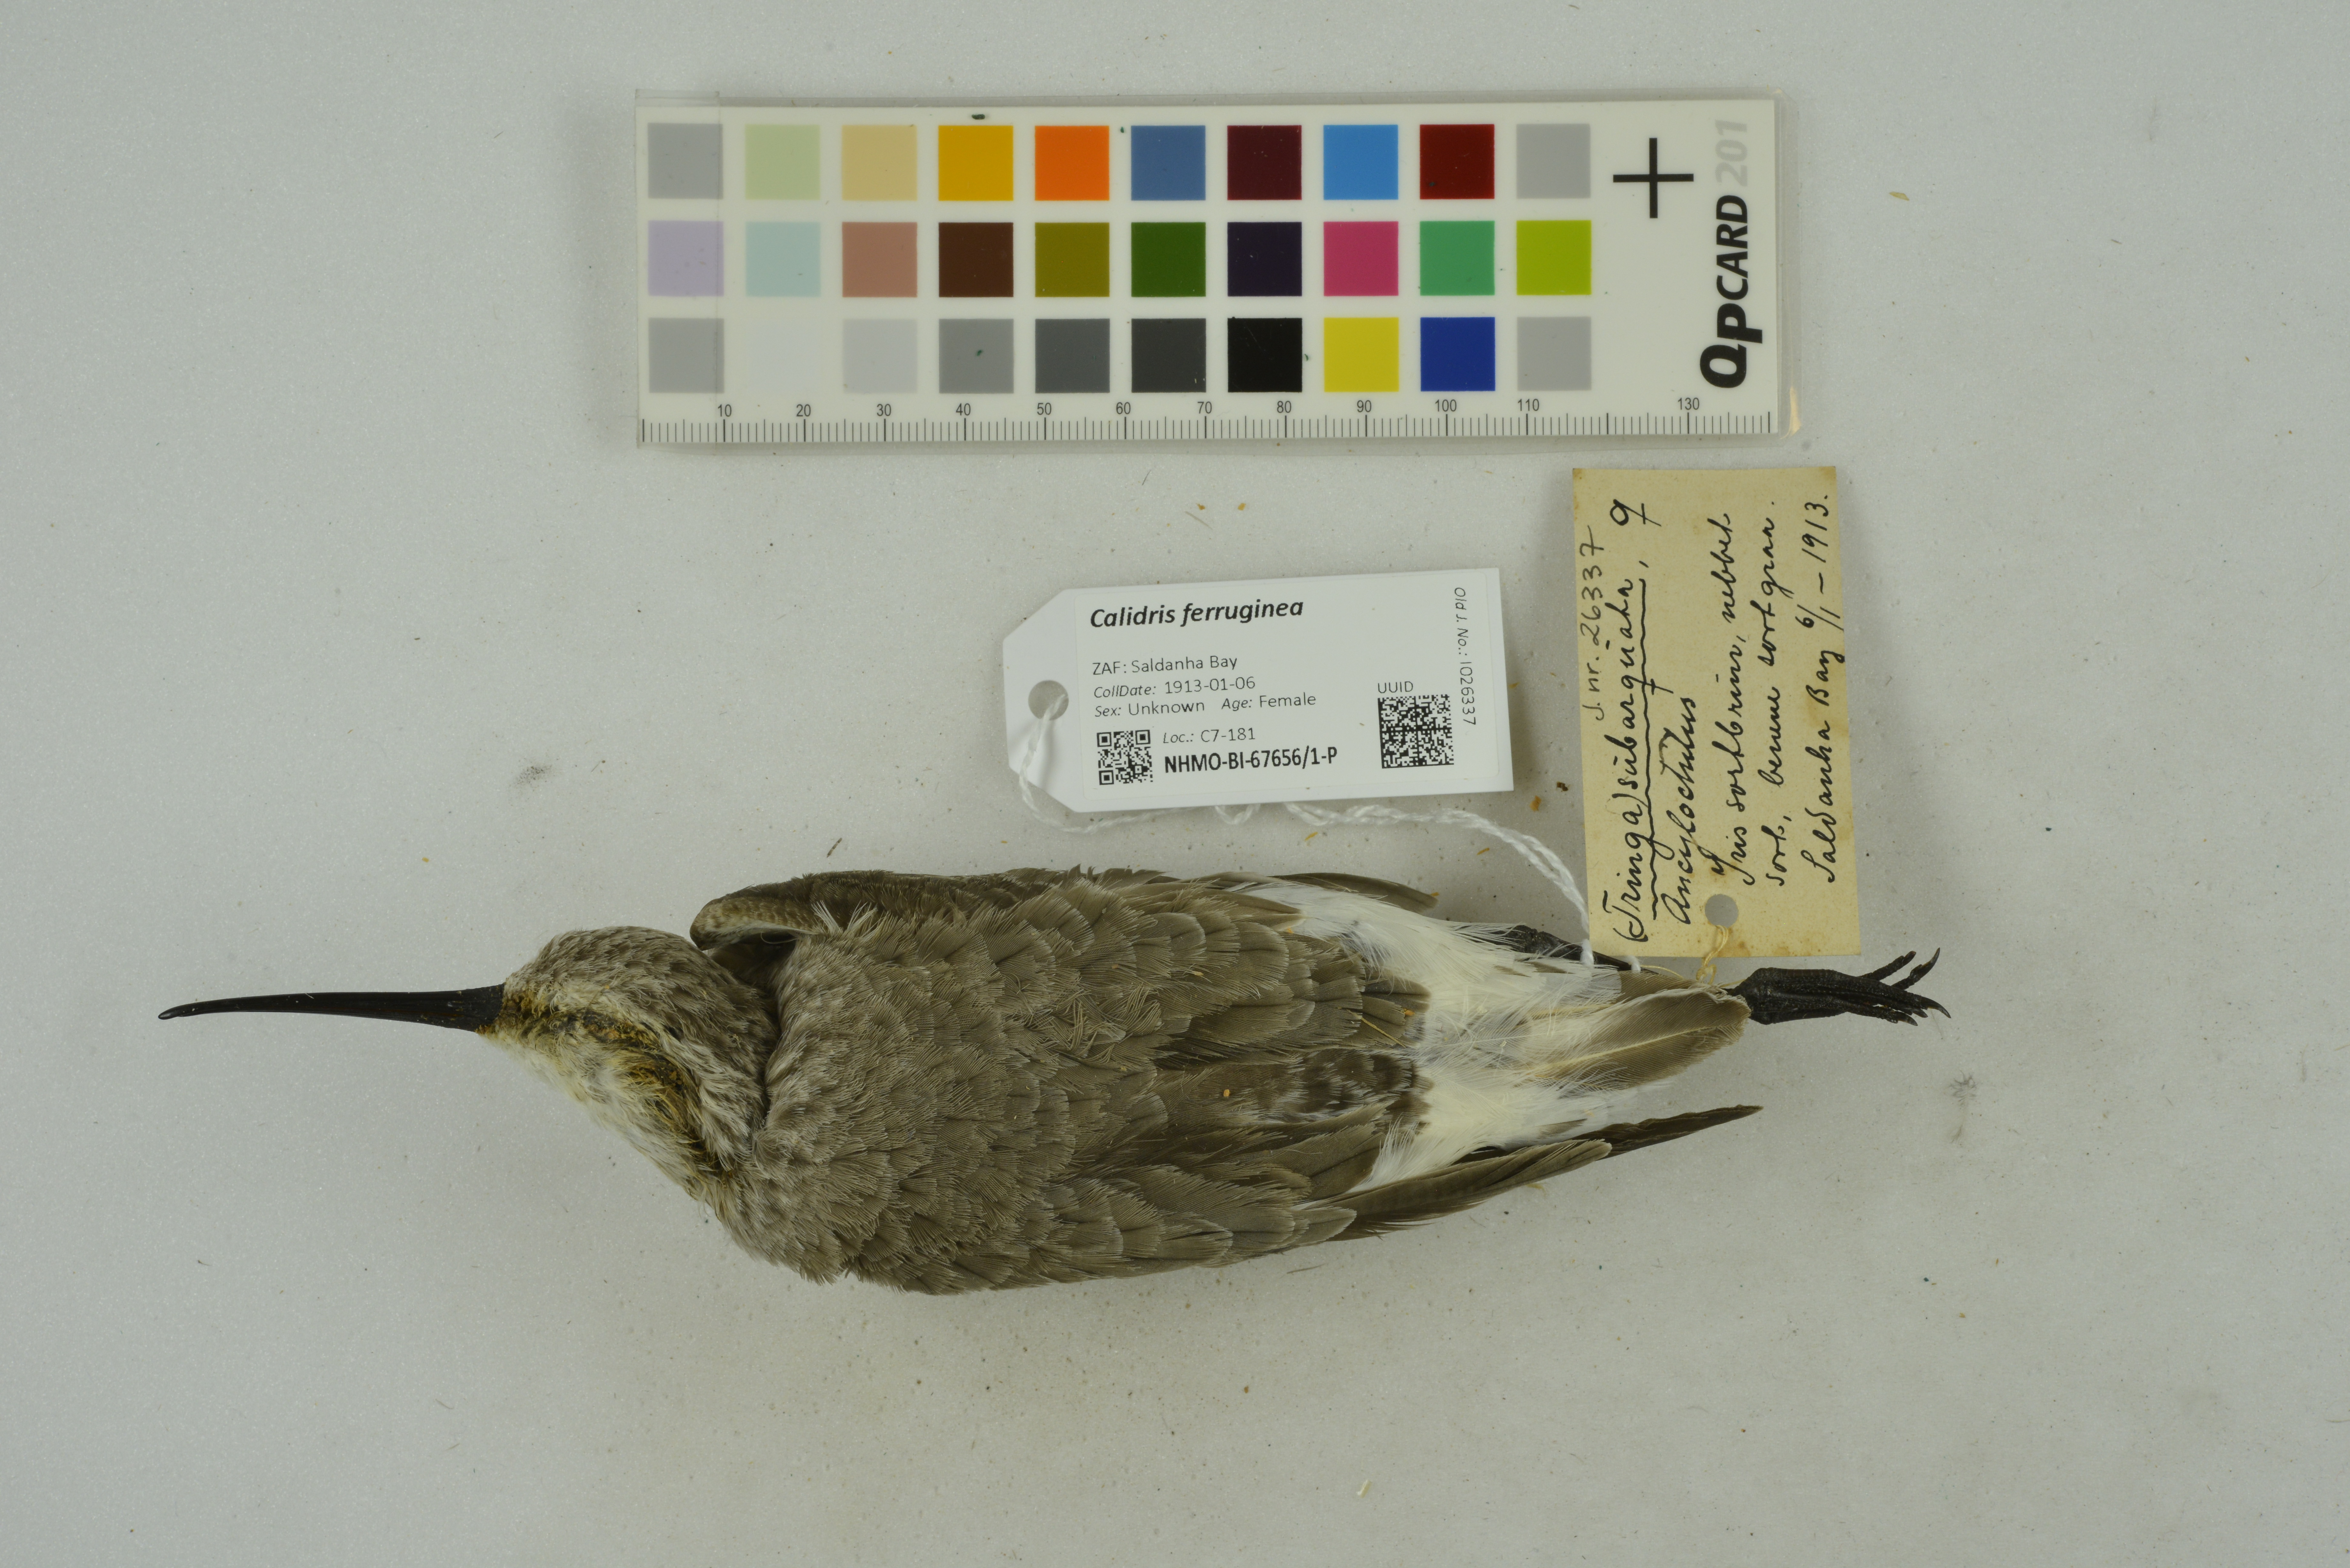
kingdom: Animalia
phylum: Chordata
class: Aves
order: Charadriiformes
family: Scolopacidae
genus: Calidris
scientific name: Calidris ferruginea
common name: Curlew sandpiper
